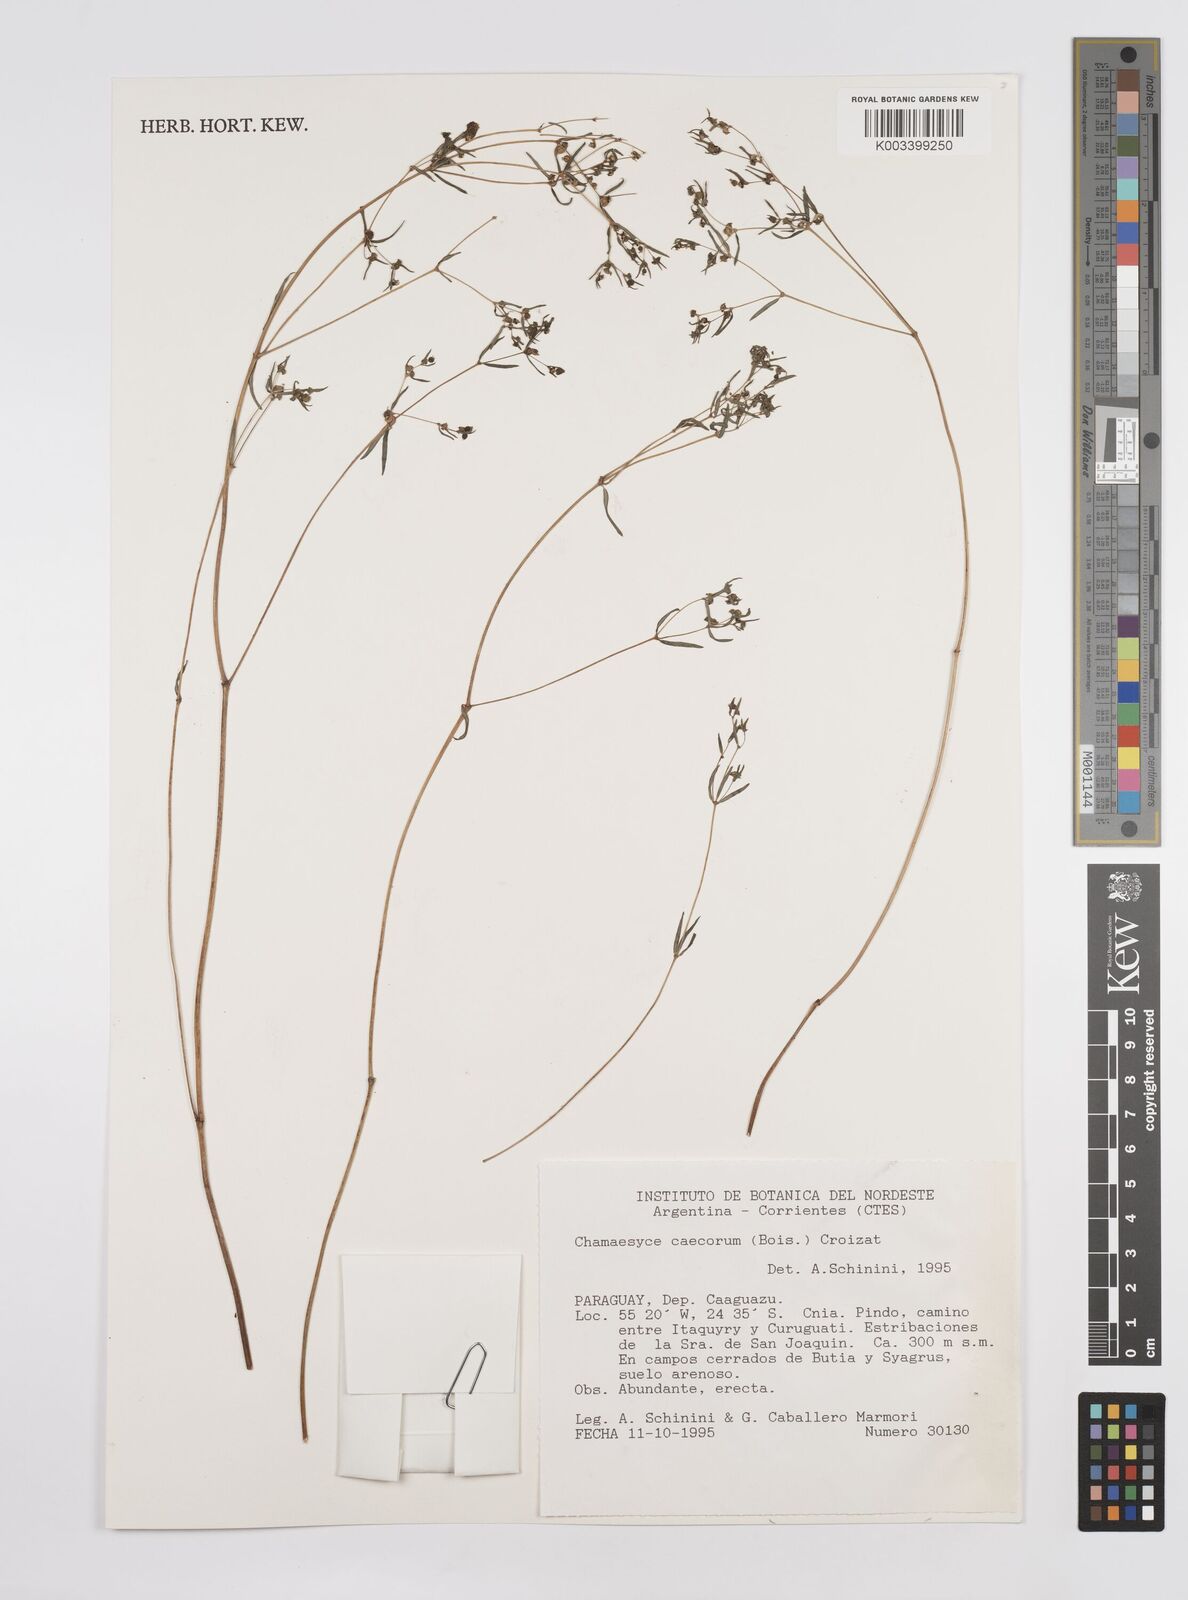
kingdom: Plantae
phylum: Tracheophyta
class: Magnoliopsida
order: Malpighiales
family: Euphorbiaceae
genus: Euphorbia
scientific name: Euphorbia potentilloides
